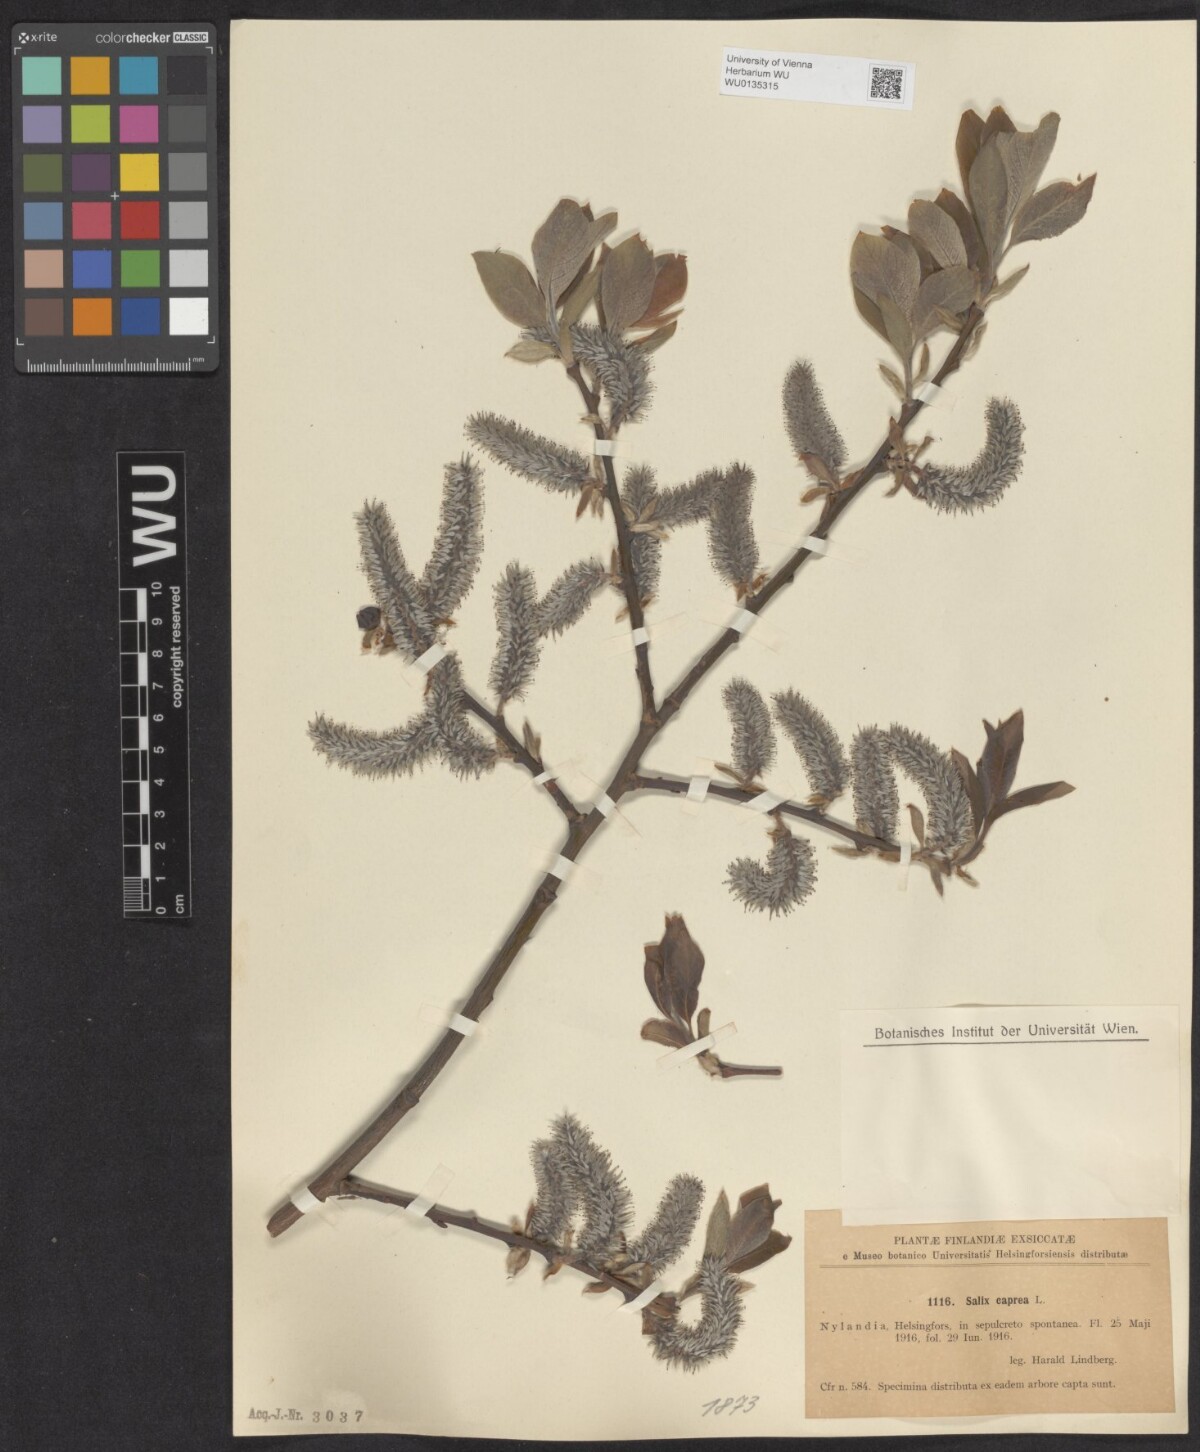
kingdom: Plantae
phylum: Tracheophyta
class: Magnoliopsida
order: Malpighiales
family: Salicaceae
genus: Salix
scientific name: Salix caprea
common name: Goat willow
